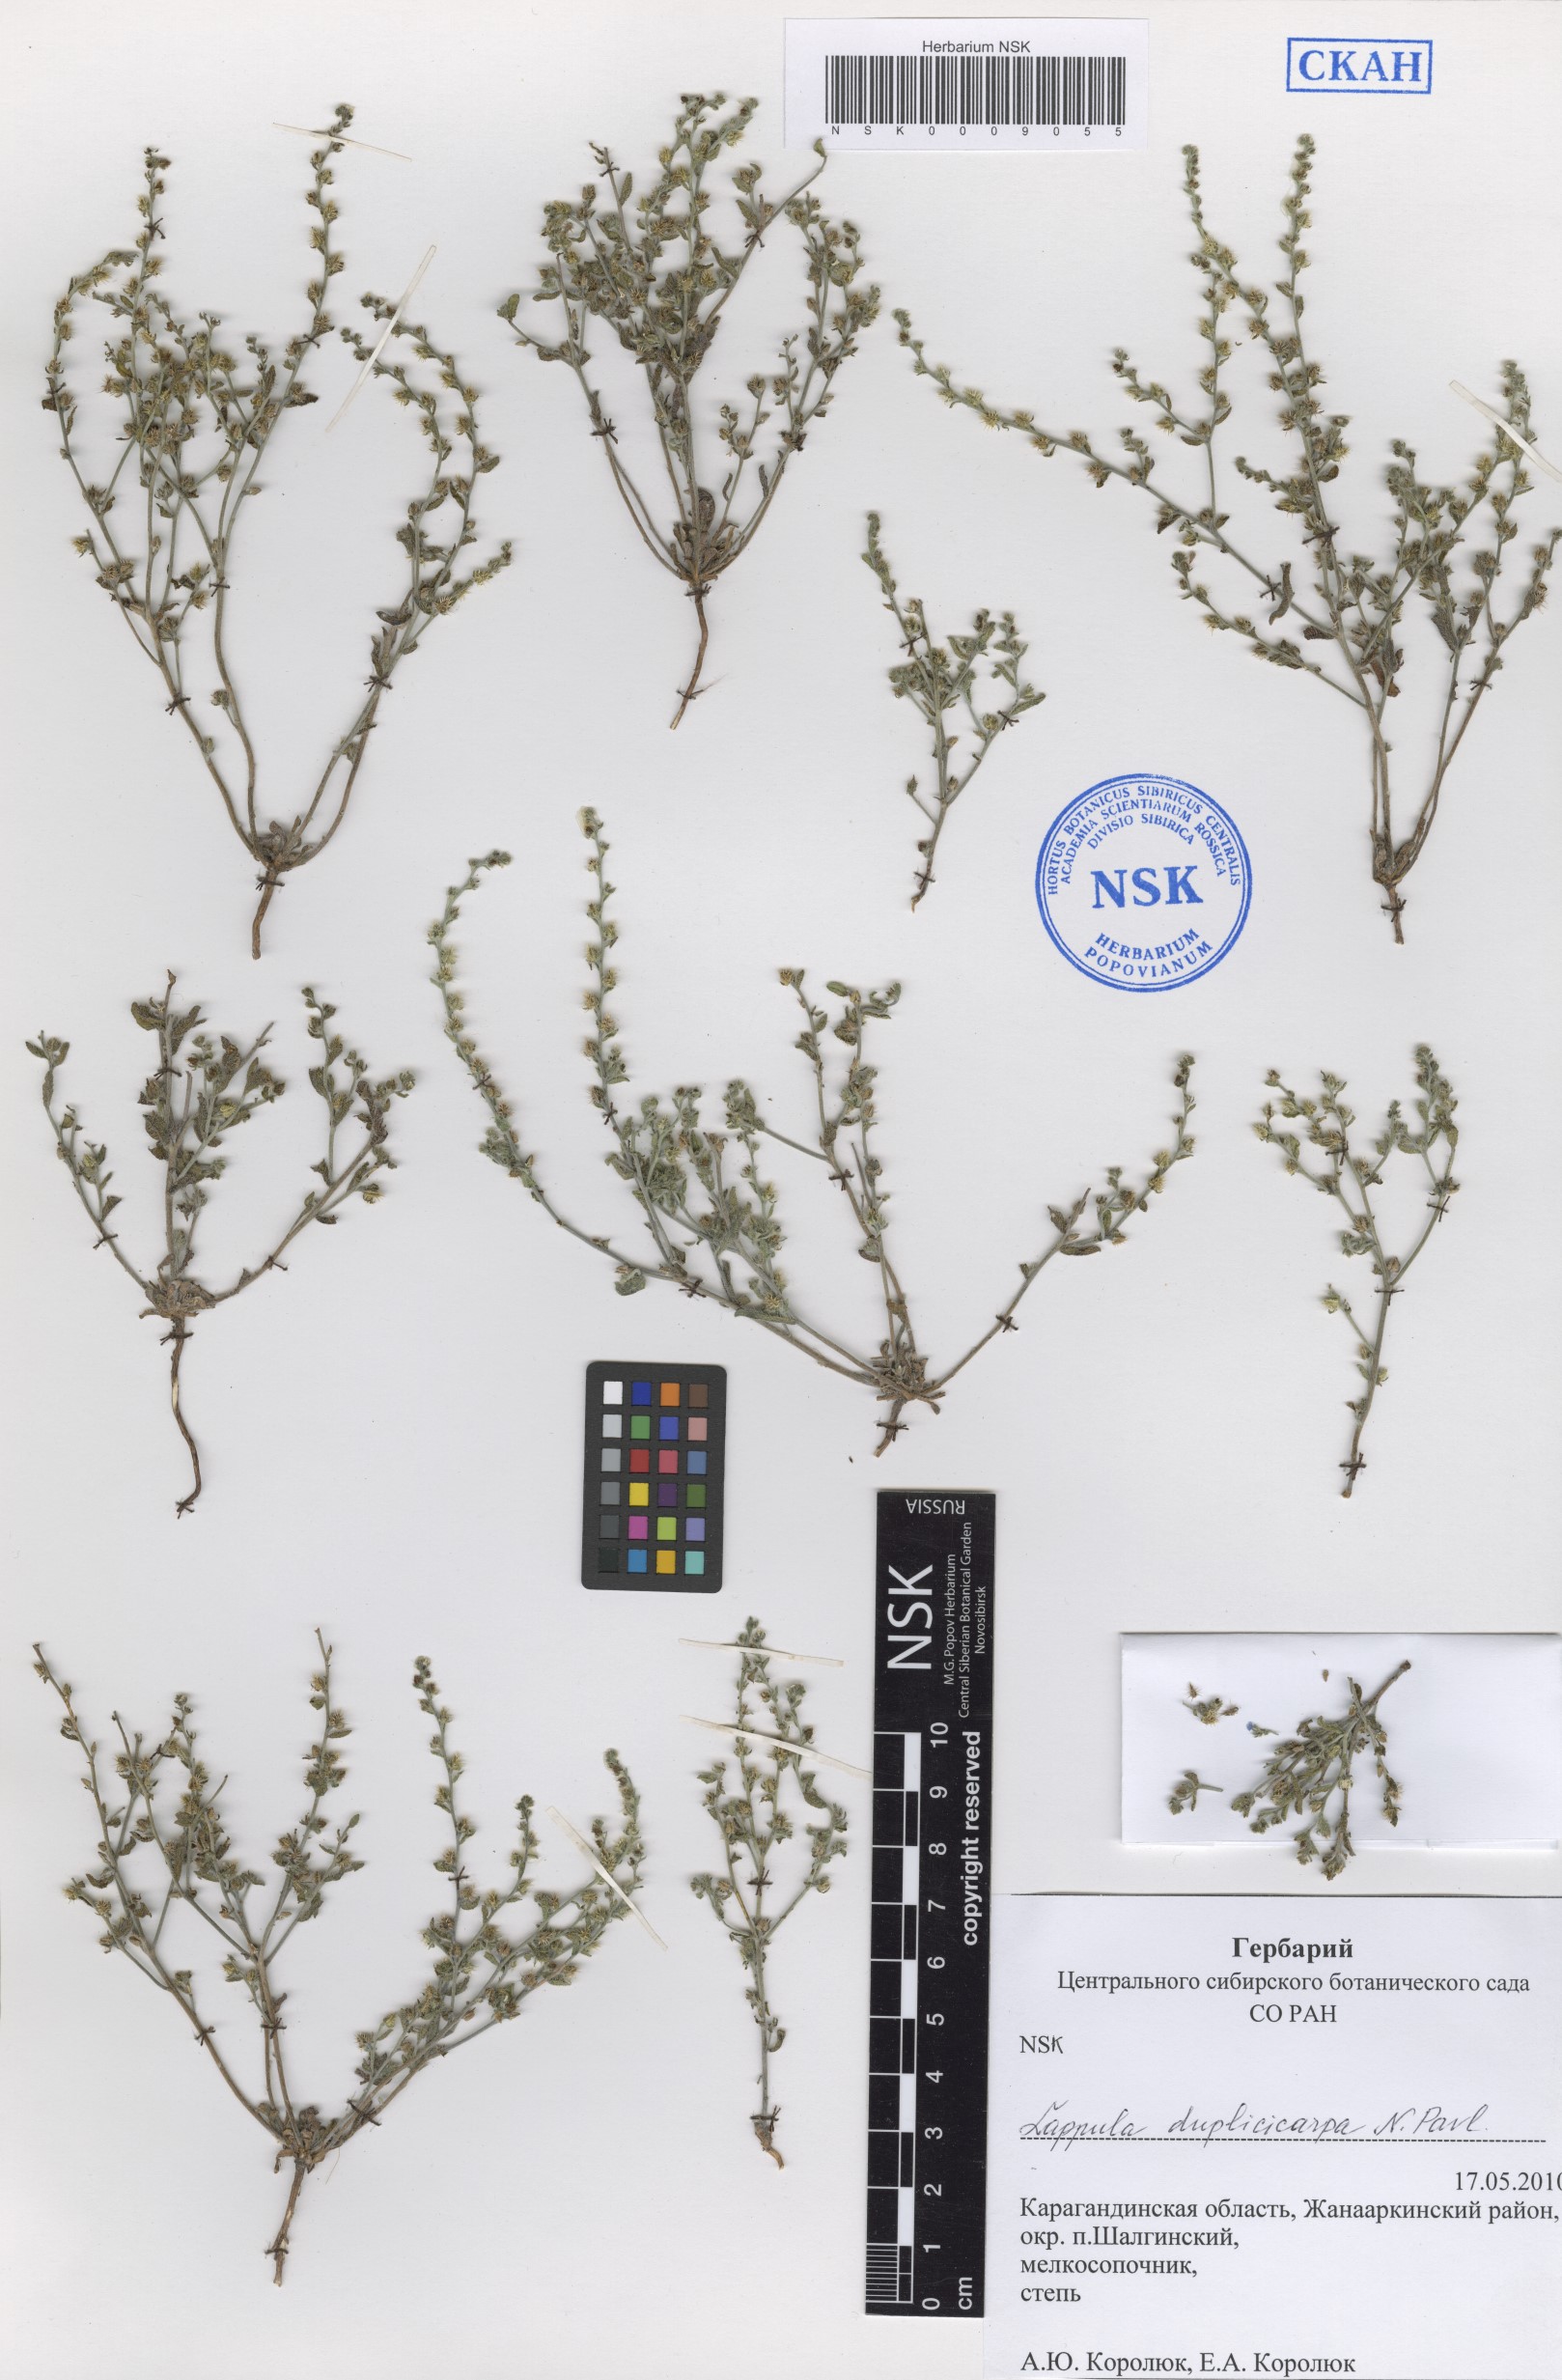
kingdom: Plantae
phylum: Tracheophyta
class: Magnoliopsida
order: Boraginales
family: Boraginaceae
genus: Lappula
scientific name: Lappula duplicicarpa
